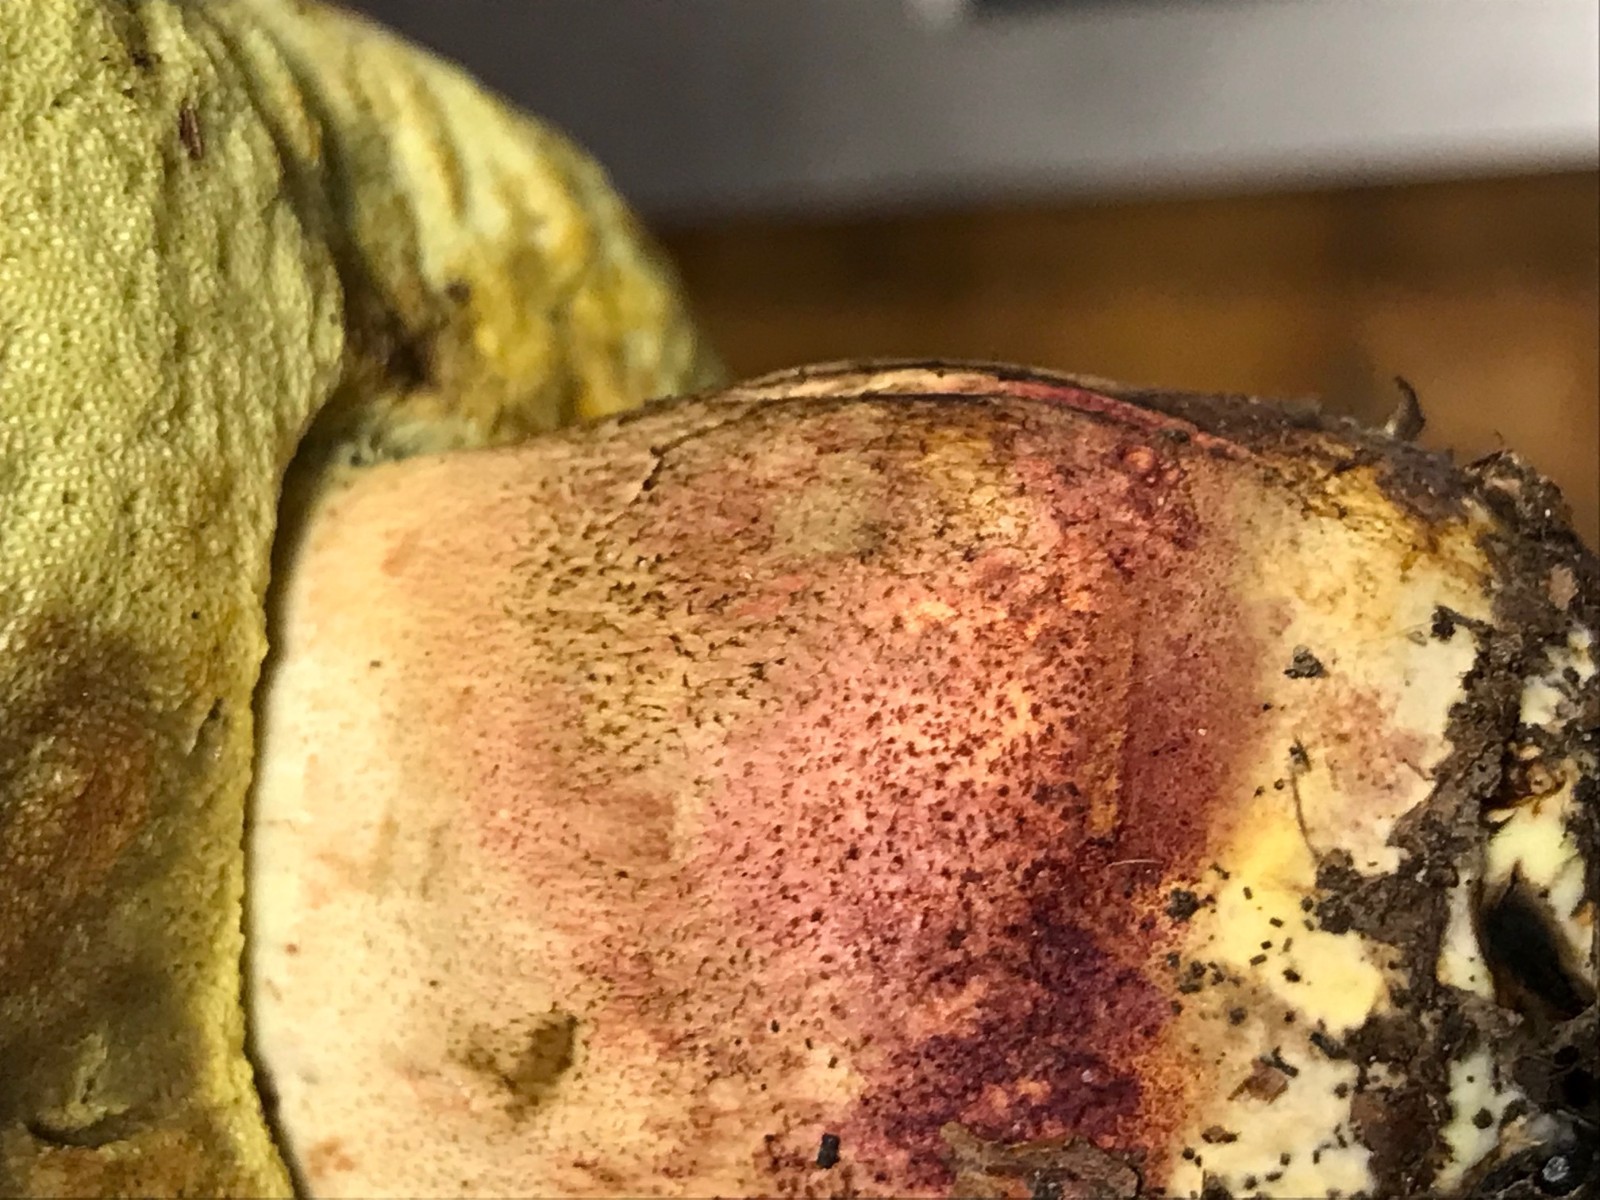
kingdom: Fungi
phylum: Basidiomycota
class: Agaricomycetes
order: Boletales
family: Boletaceae
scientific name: Boletaceae
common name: rørhatfamilien
